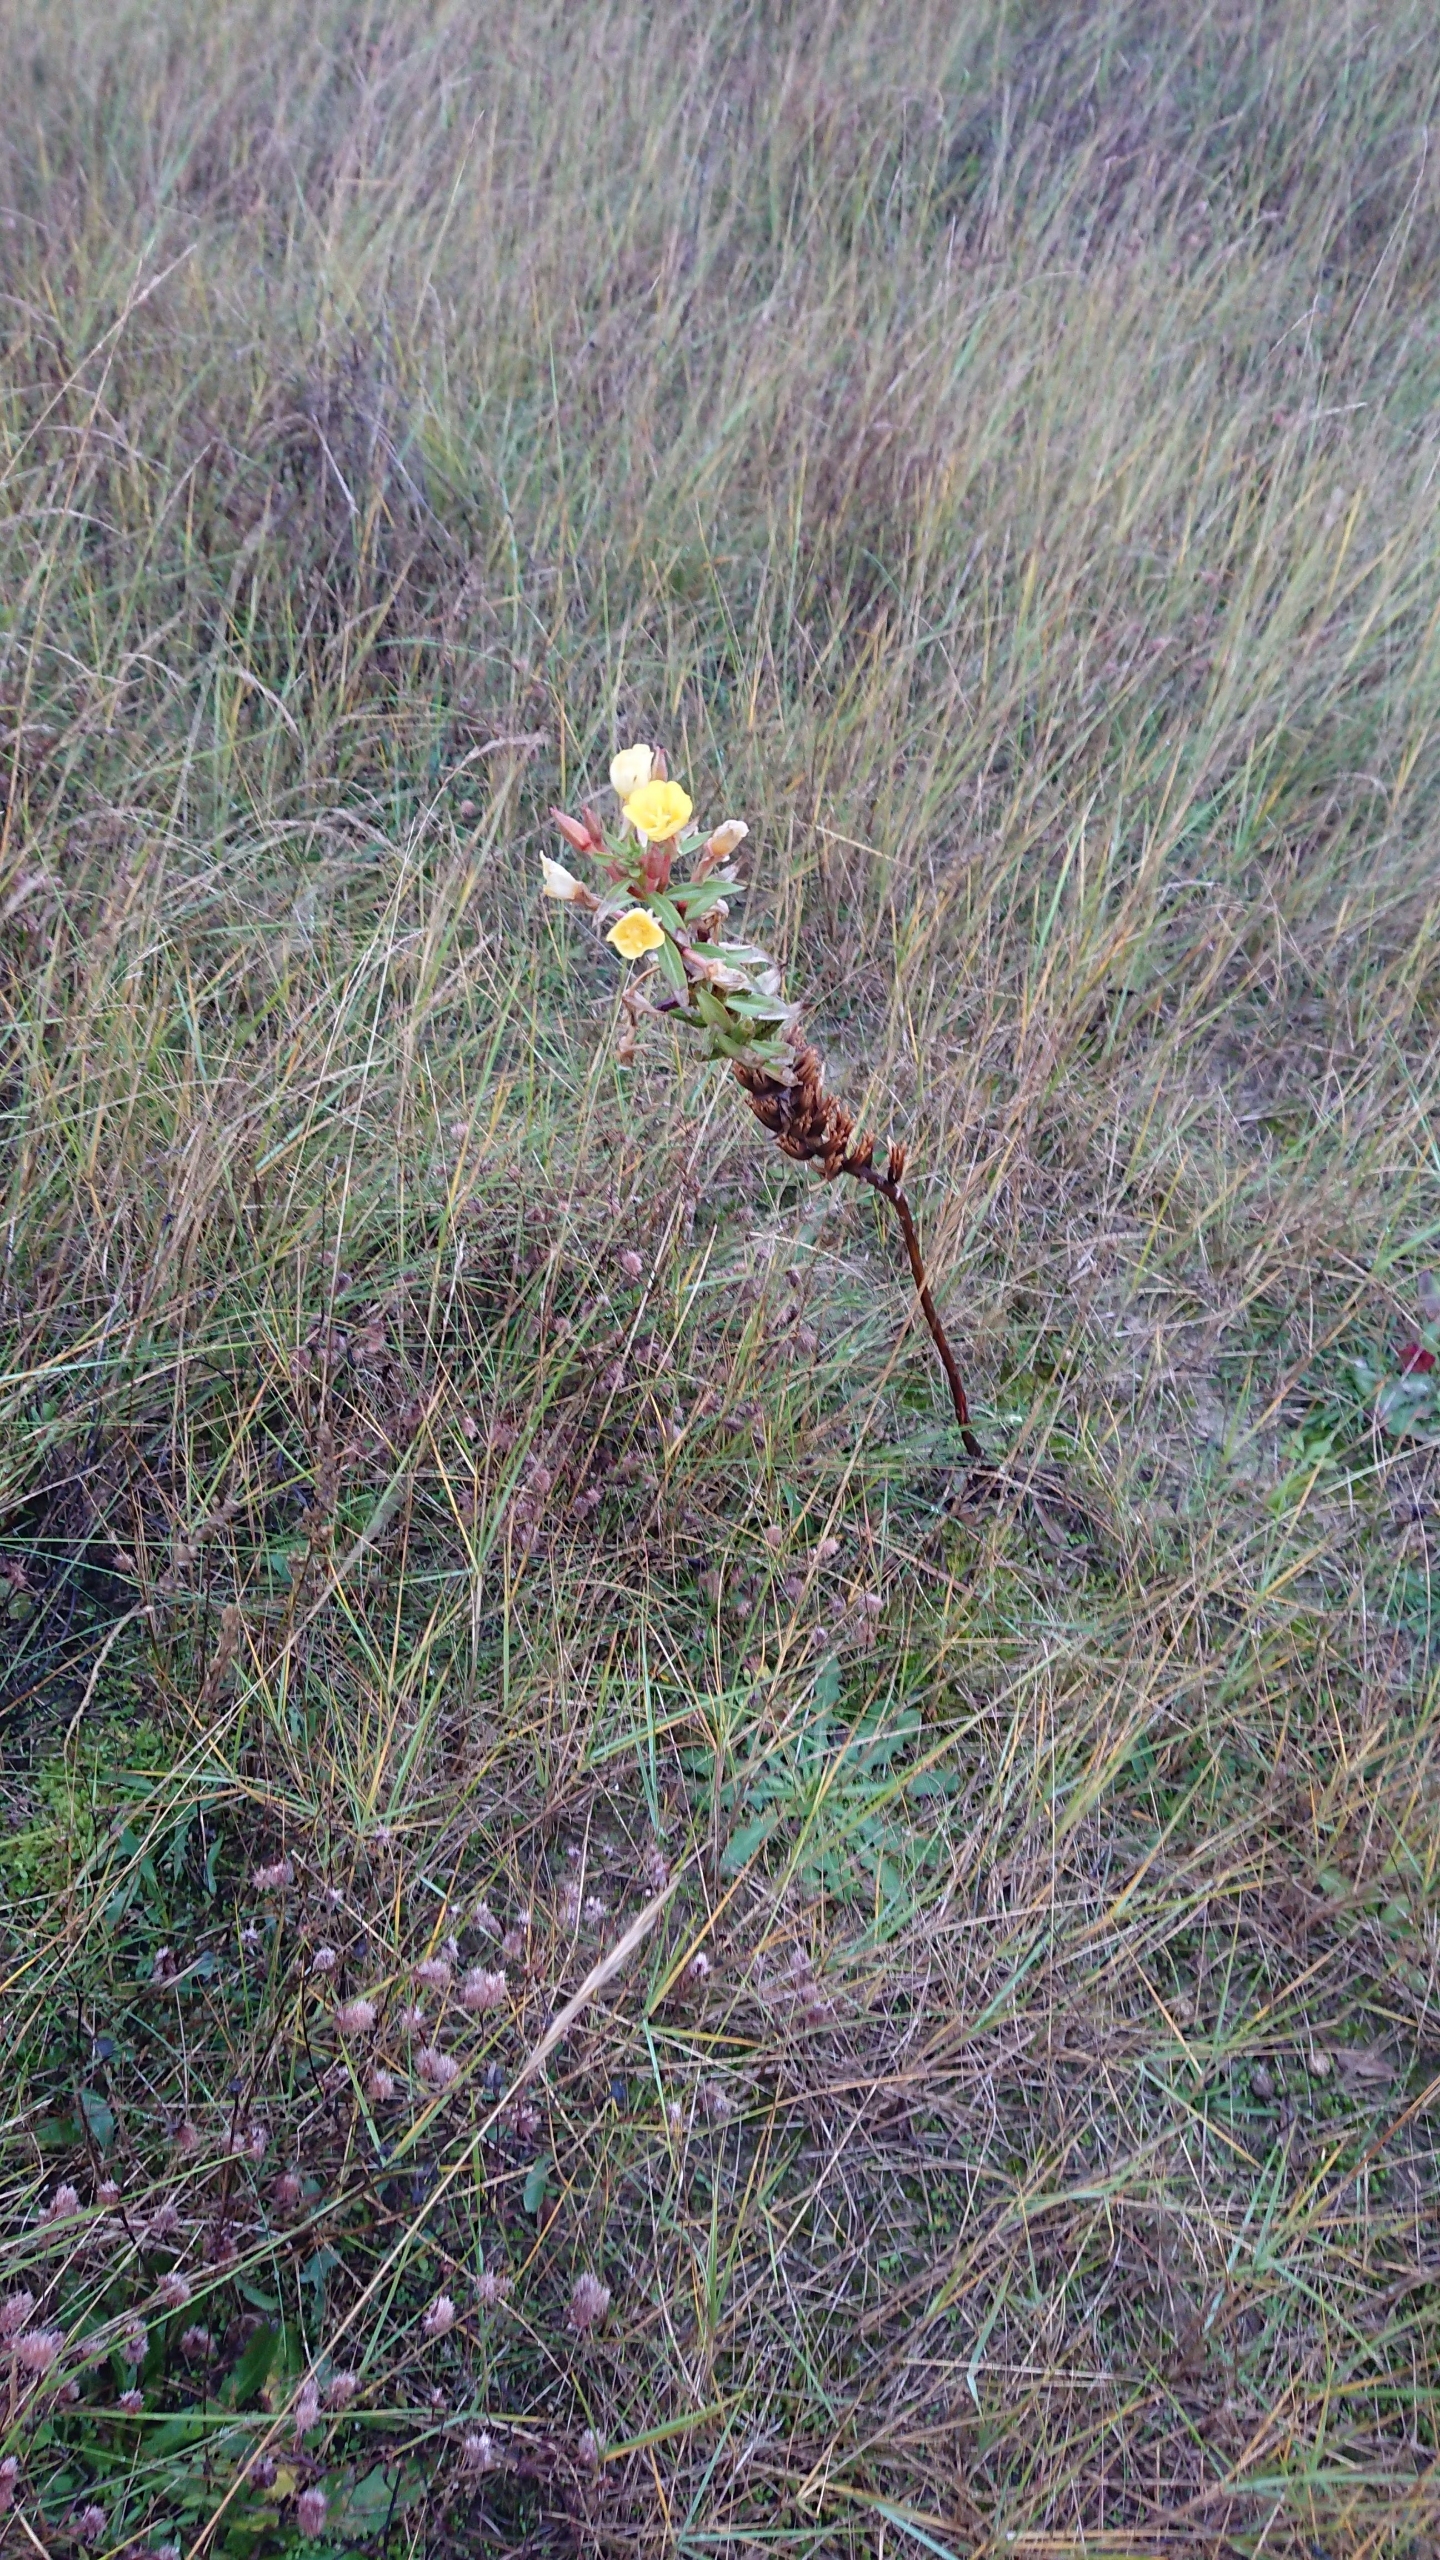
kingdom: Plantae
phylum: Tracheophyta
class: Magnoliopsida
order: Myrtales
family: Onagraceae
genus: Oenothera
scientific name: Oenothera ammophila
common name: Klit-natlys
